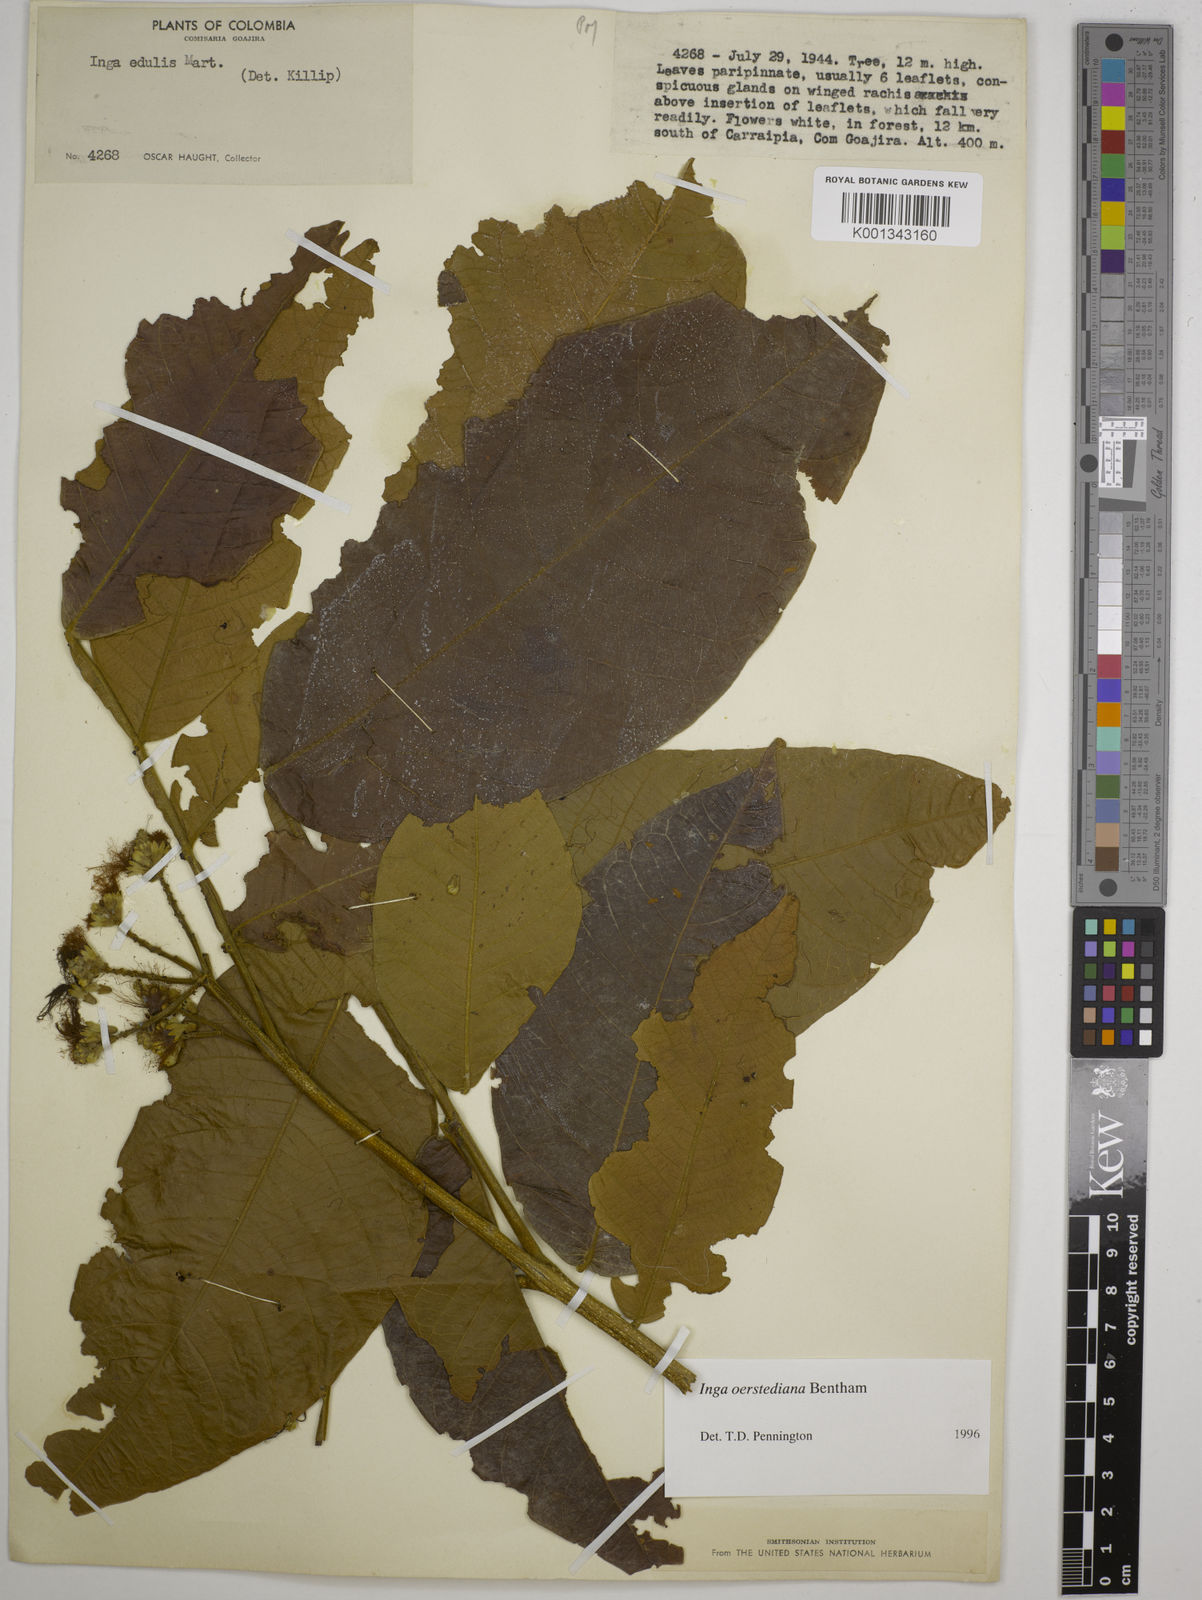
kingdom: Plantae
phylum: Tracheophyta
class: Magnoliopsida
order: Fabales
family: Fabaceae
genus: Inga
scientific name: Inga oerstediana
